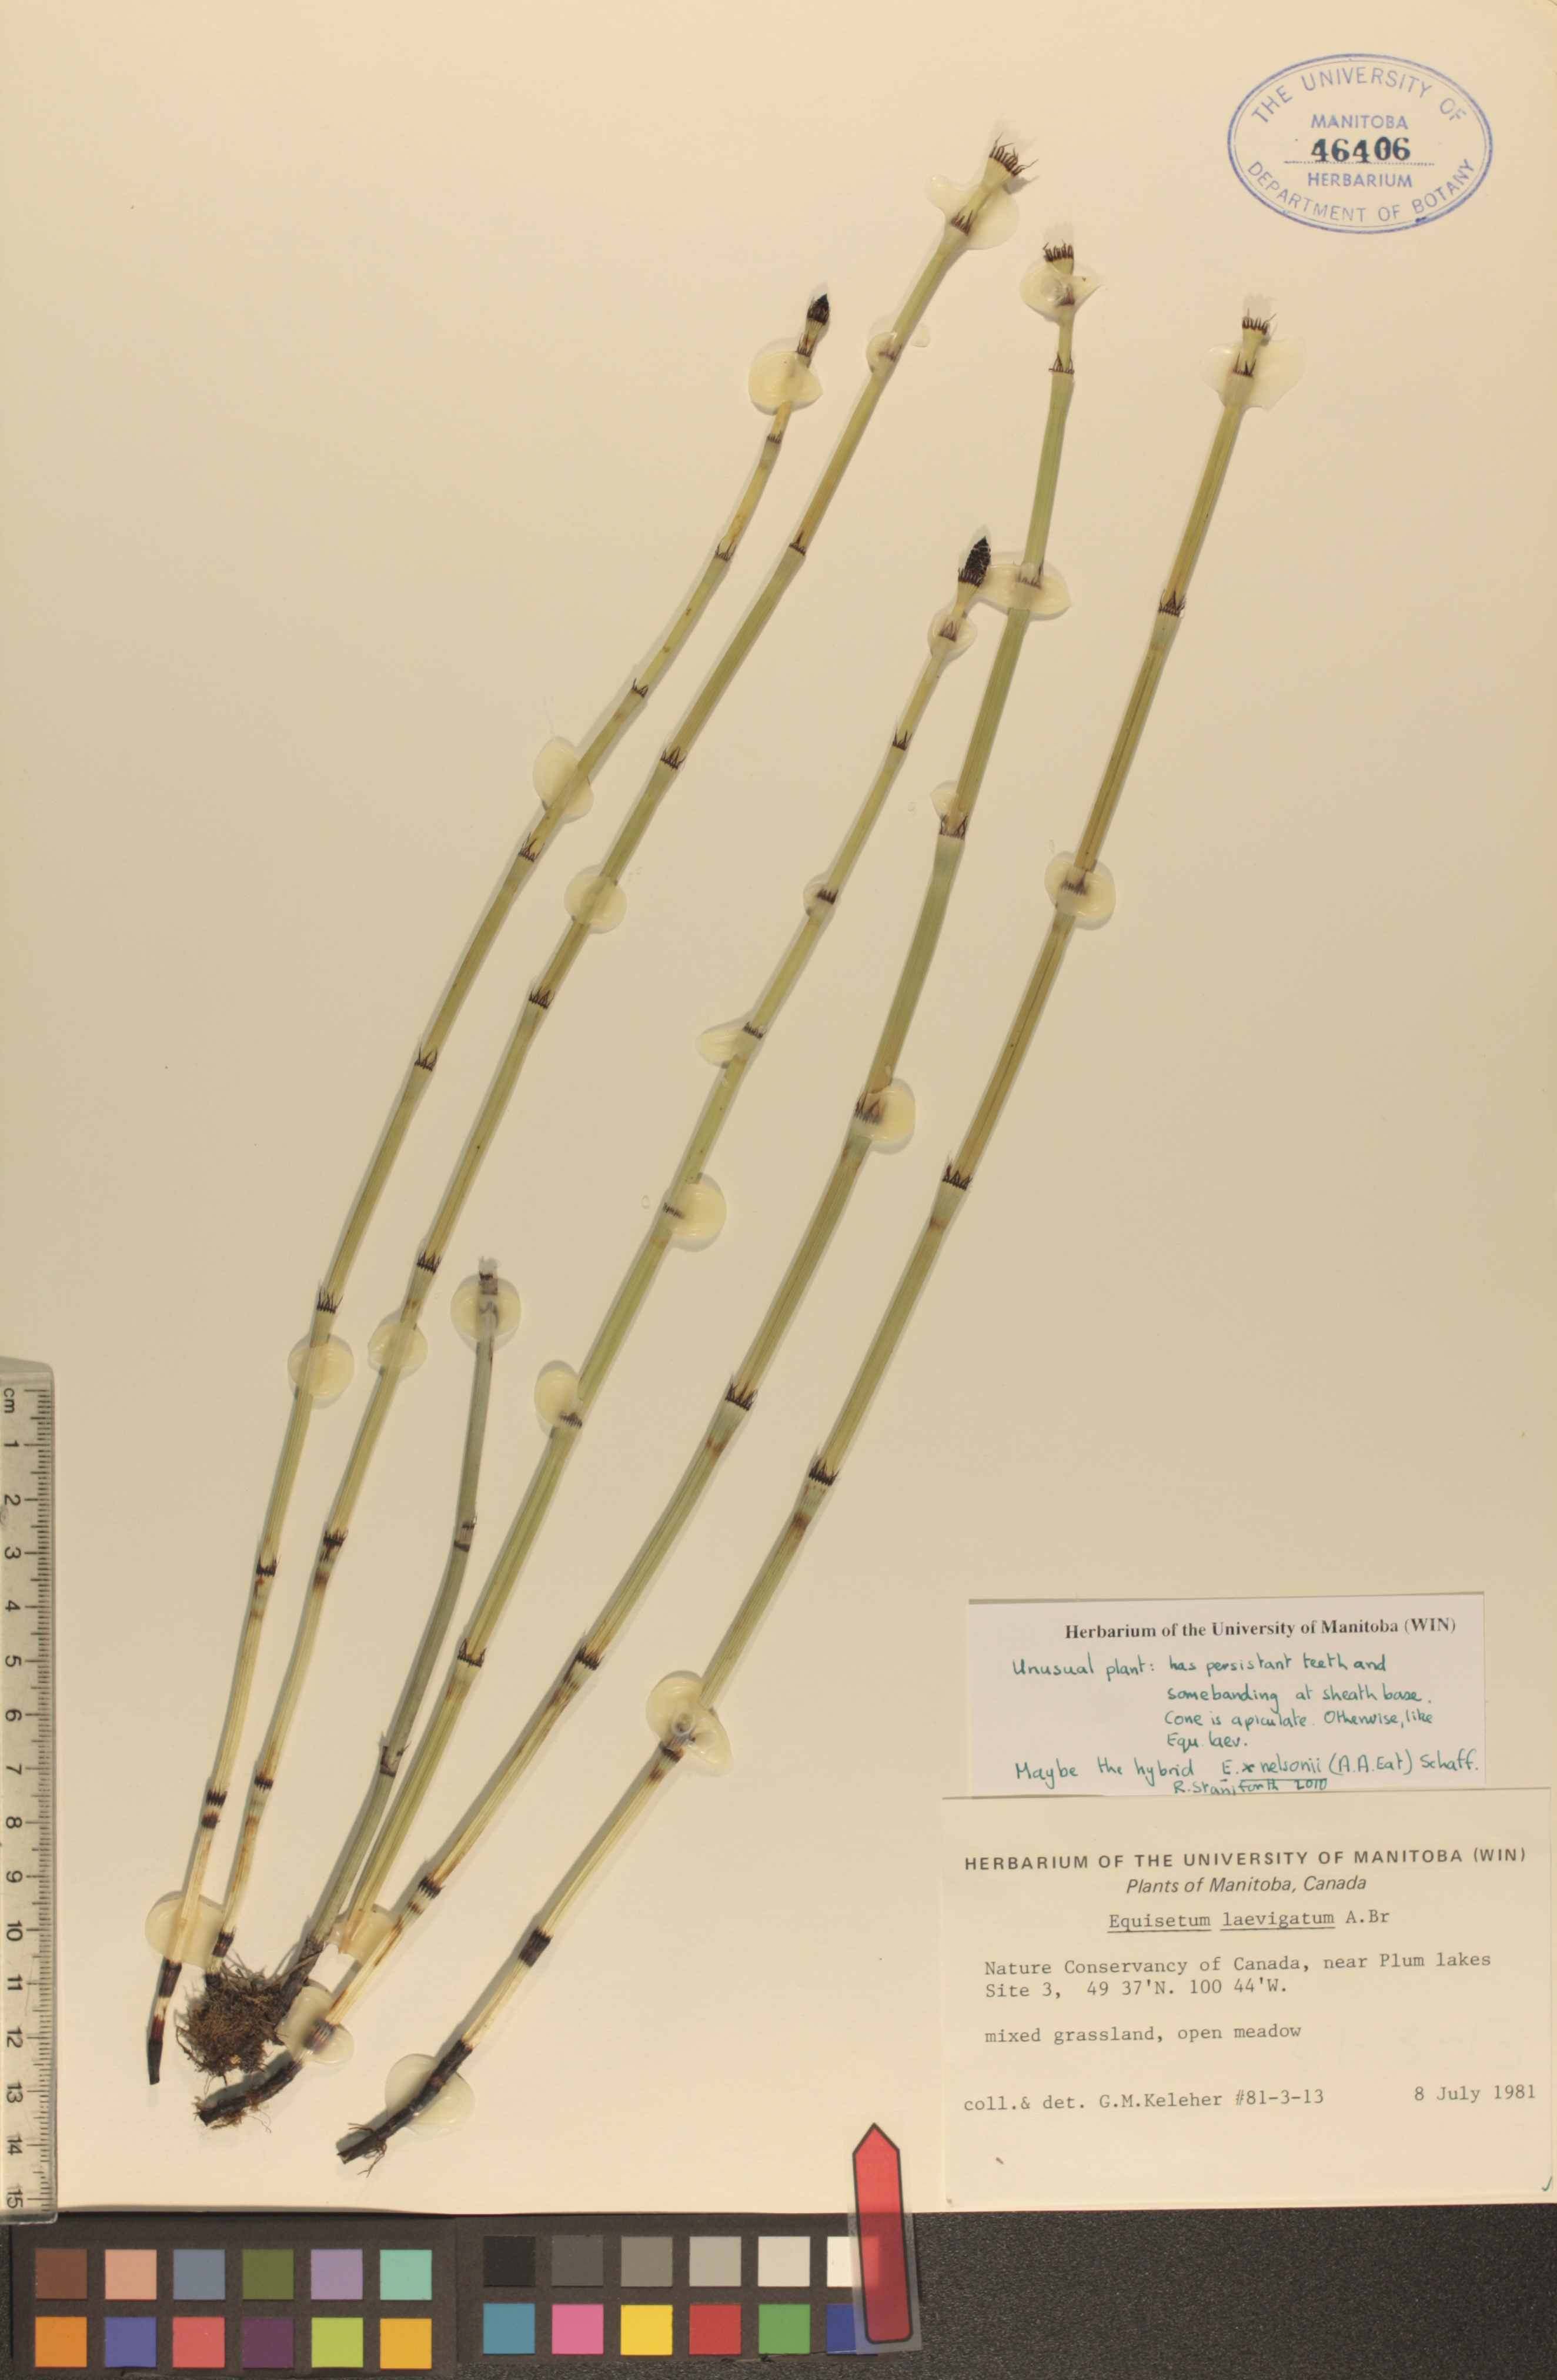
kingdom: Plantae
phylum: Tracheophyta
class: Polypodiopsida
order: Equisetales
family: Equisetaceae
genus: Equisetum
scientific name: Equisetum laevigatum
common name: Smooth scouring-rush
